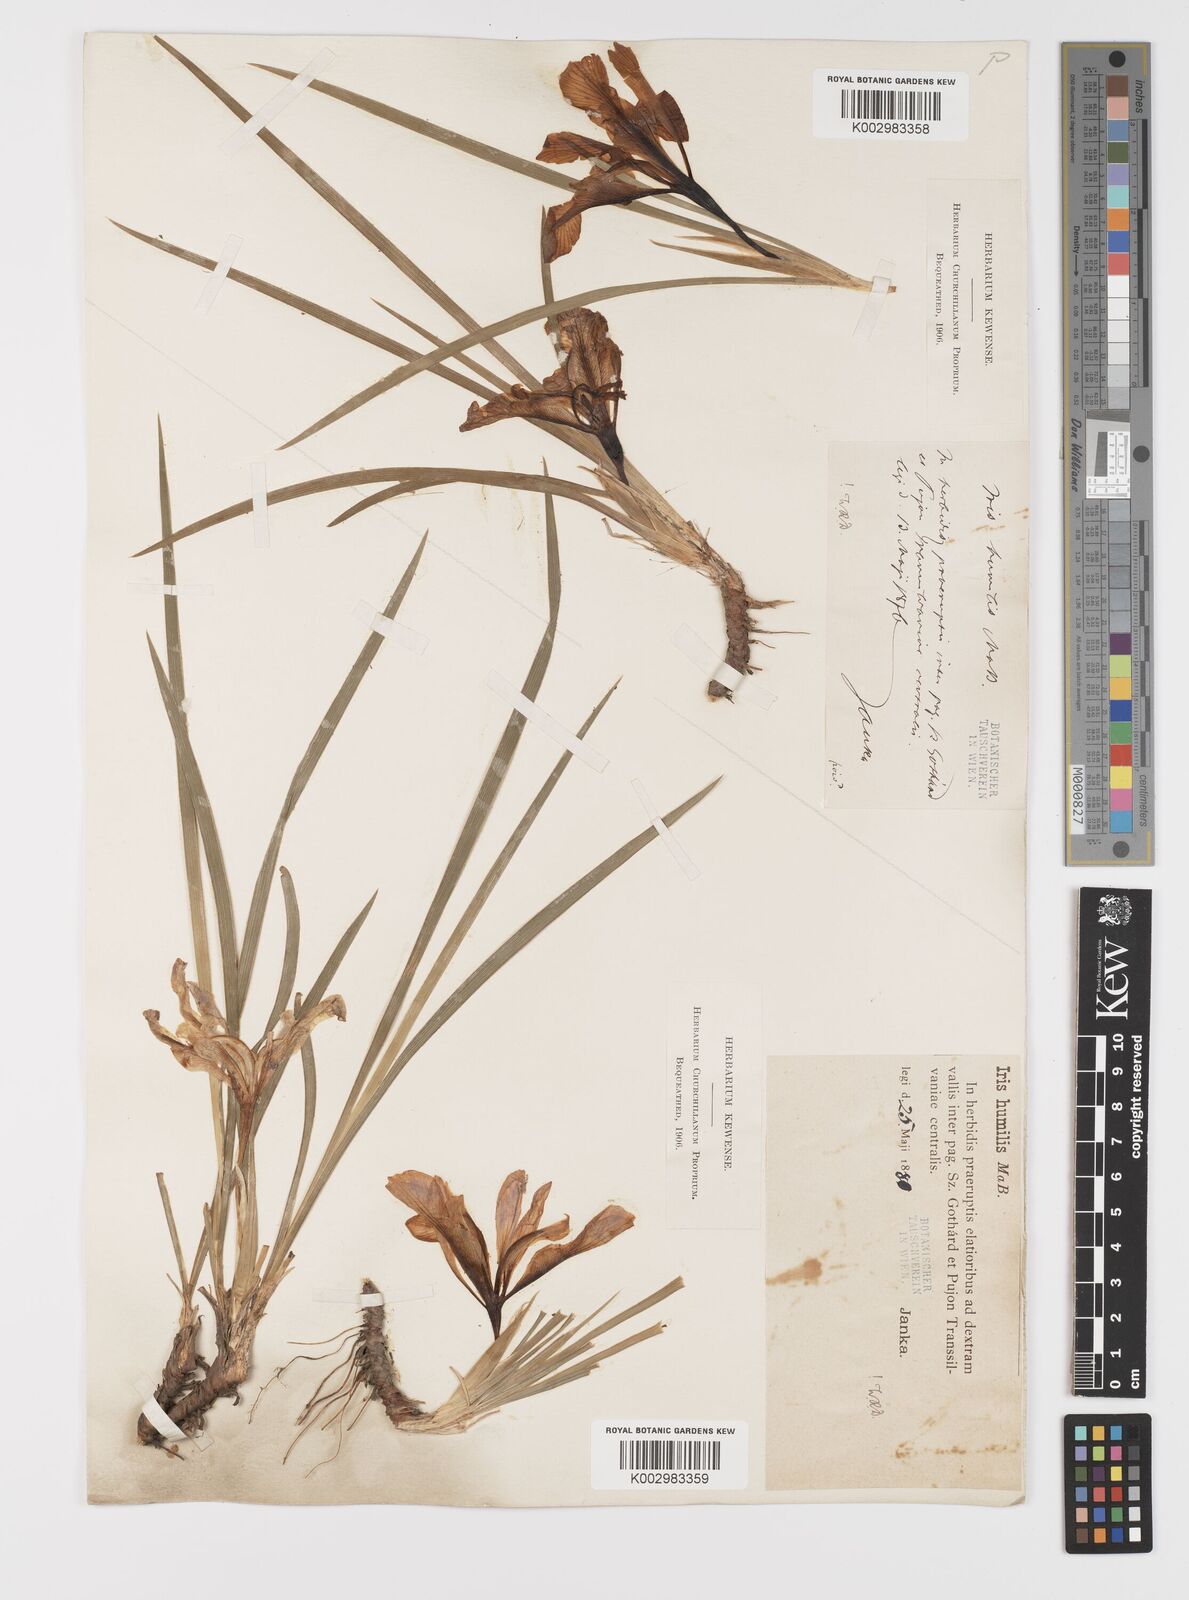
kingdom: Plantae
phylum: Tracheophyta
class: Liliopsida
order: Asparagales
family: Iridaceae
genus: Iris
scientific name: Iris pontica
